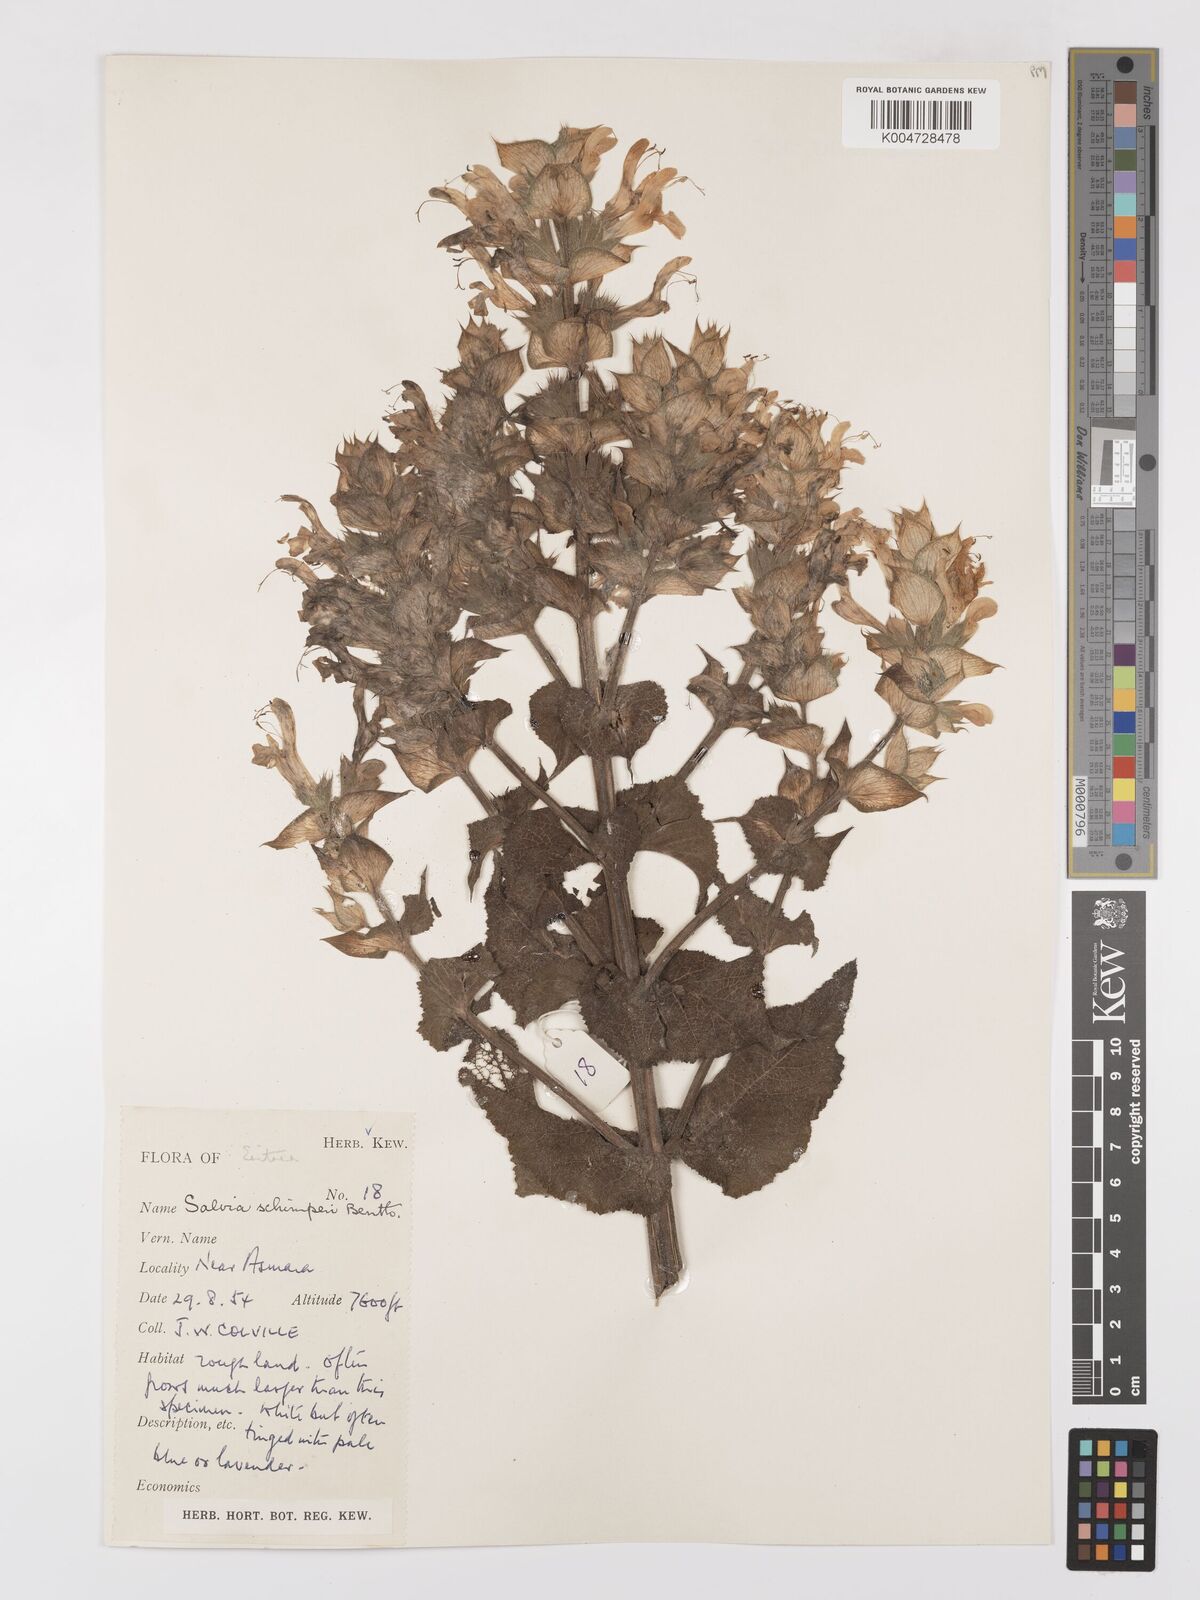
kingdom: Plantae
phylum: Tracheophyta
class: Magnoliopsida
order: Lamiales
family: Lamiaceae
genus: Salvia
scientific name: Salvia schimperi
